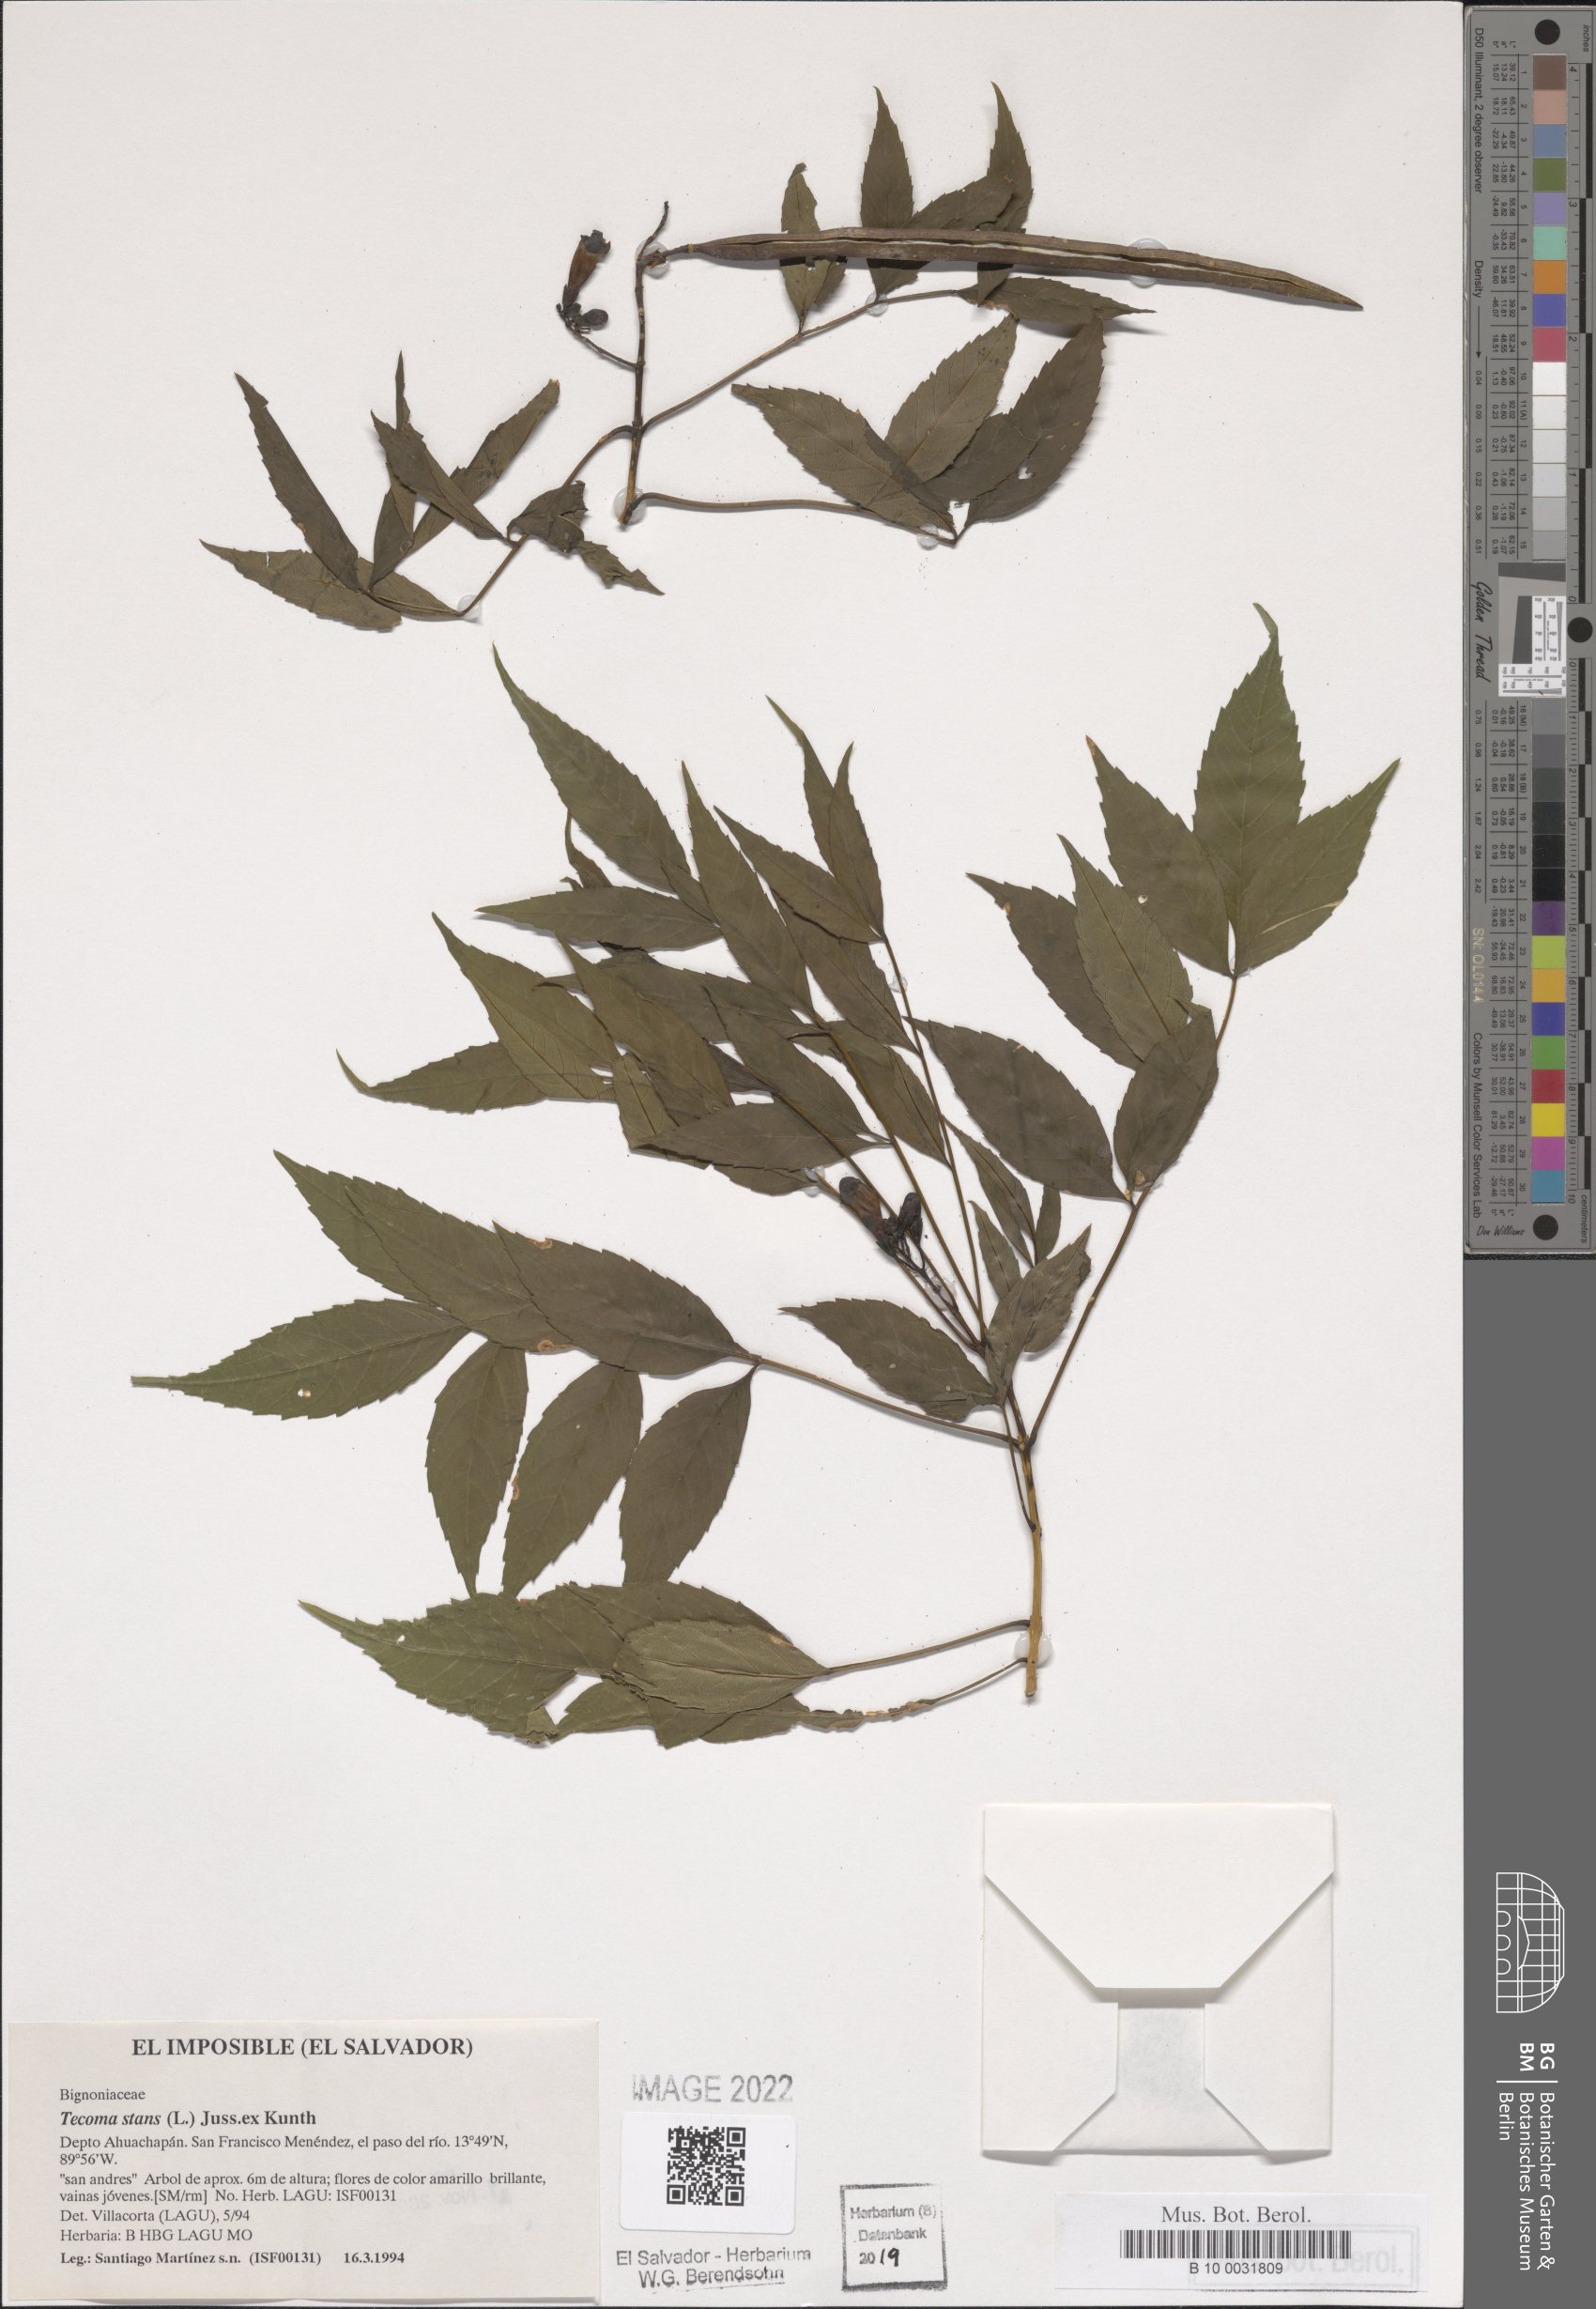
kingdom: Plantae
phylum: Tracheophyta
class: Magnoliopsida
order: Lamiales
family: Bignoniaceae
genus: Tecoma
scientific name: Tecoma stans
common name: Yellow trumpetbush
